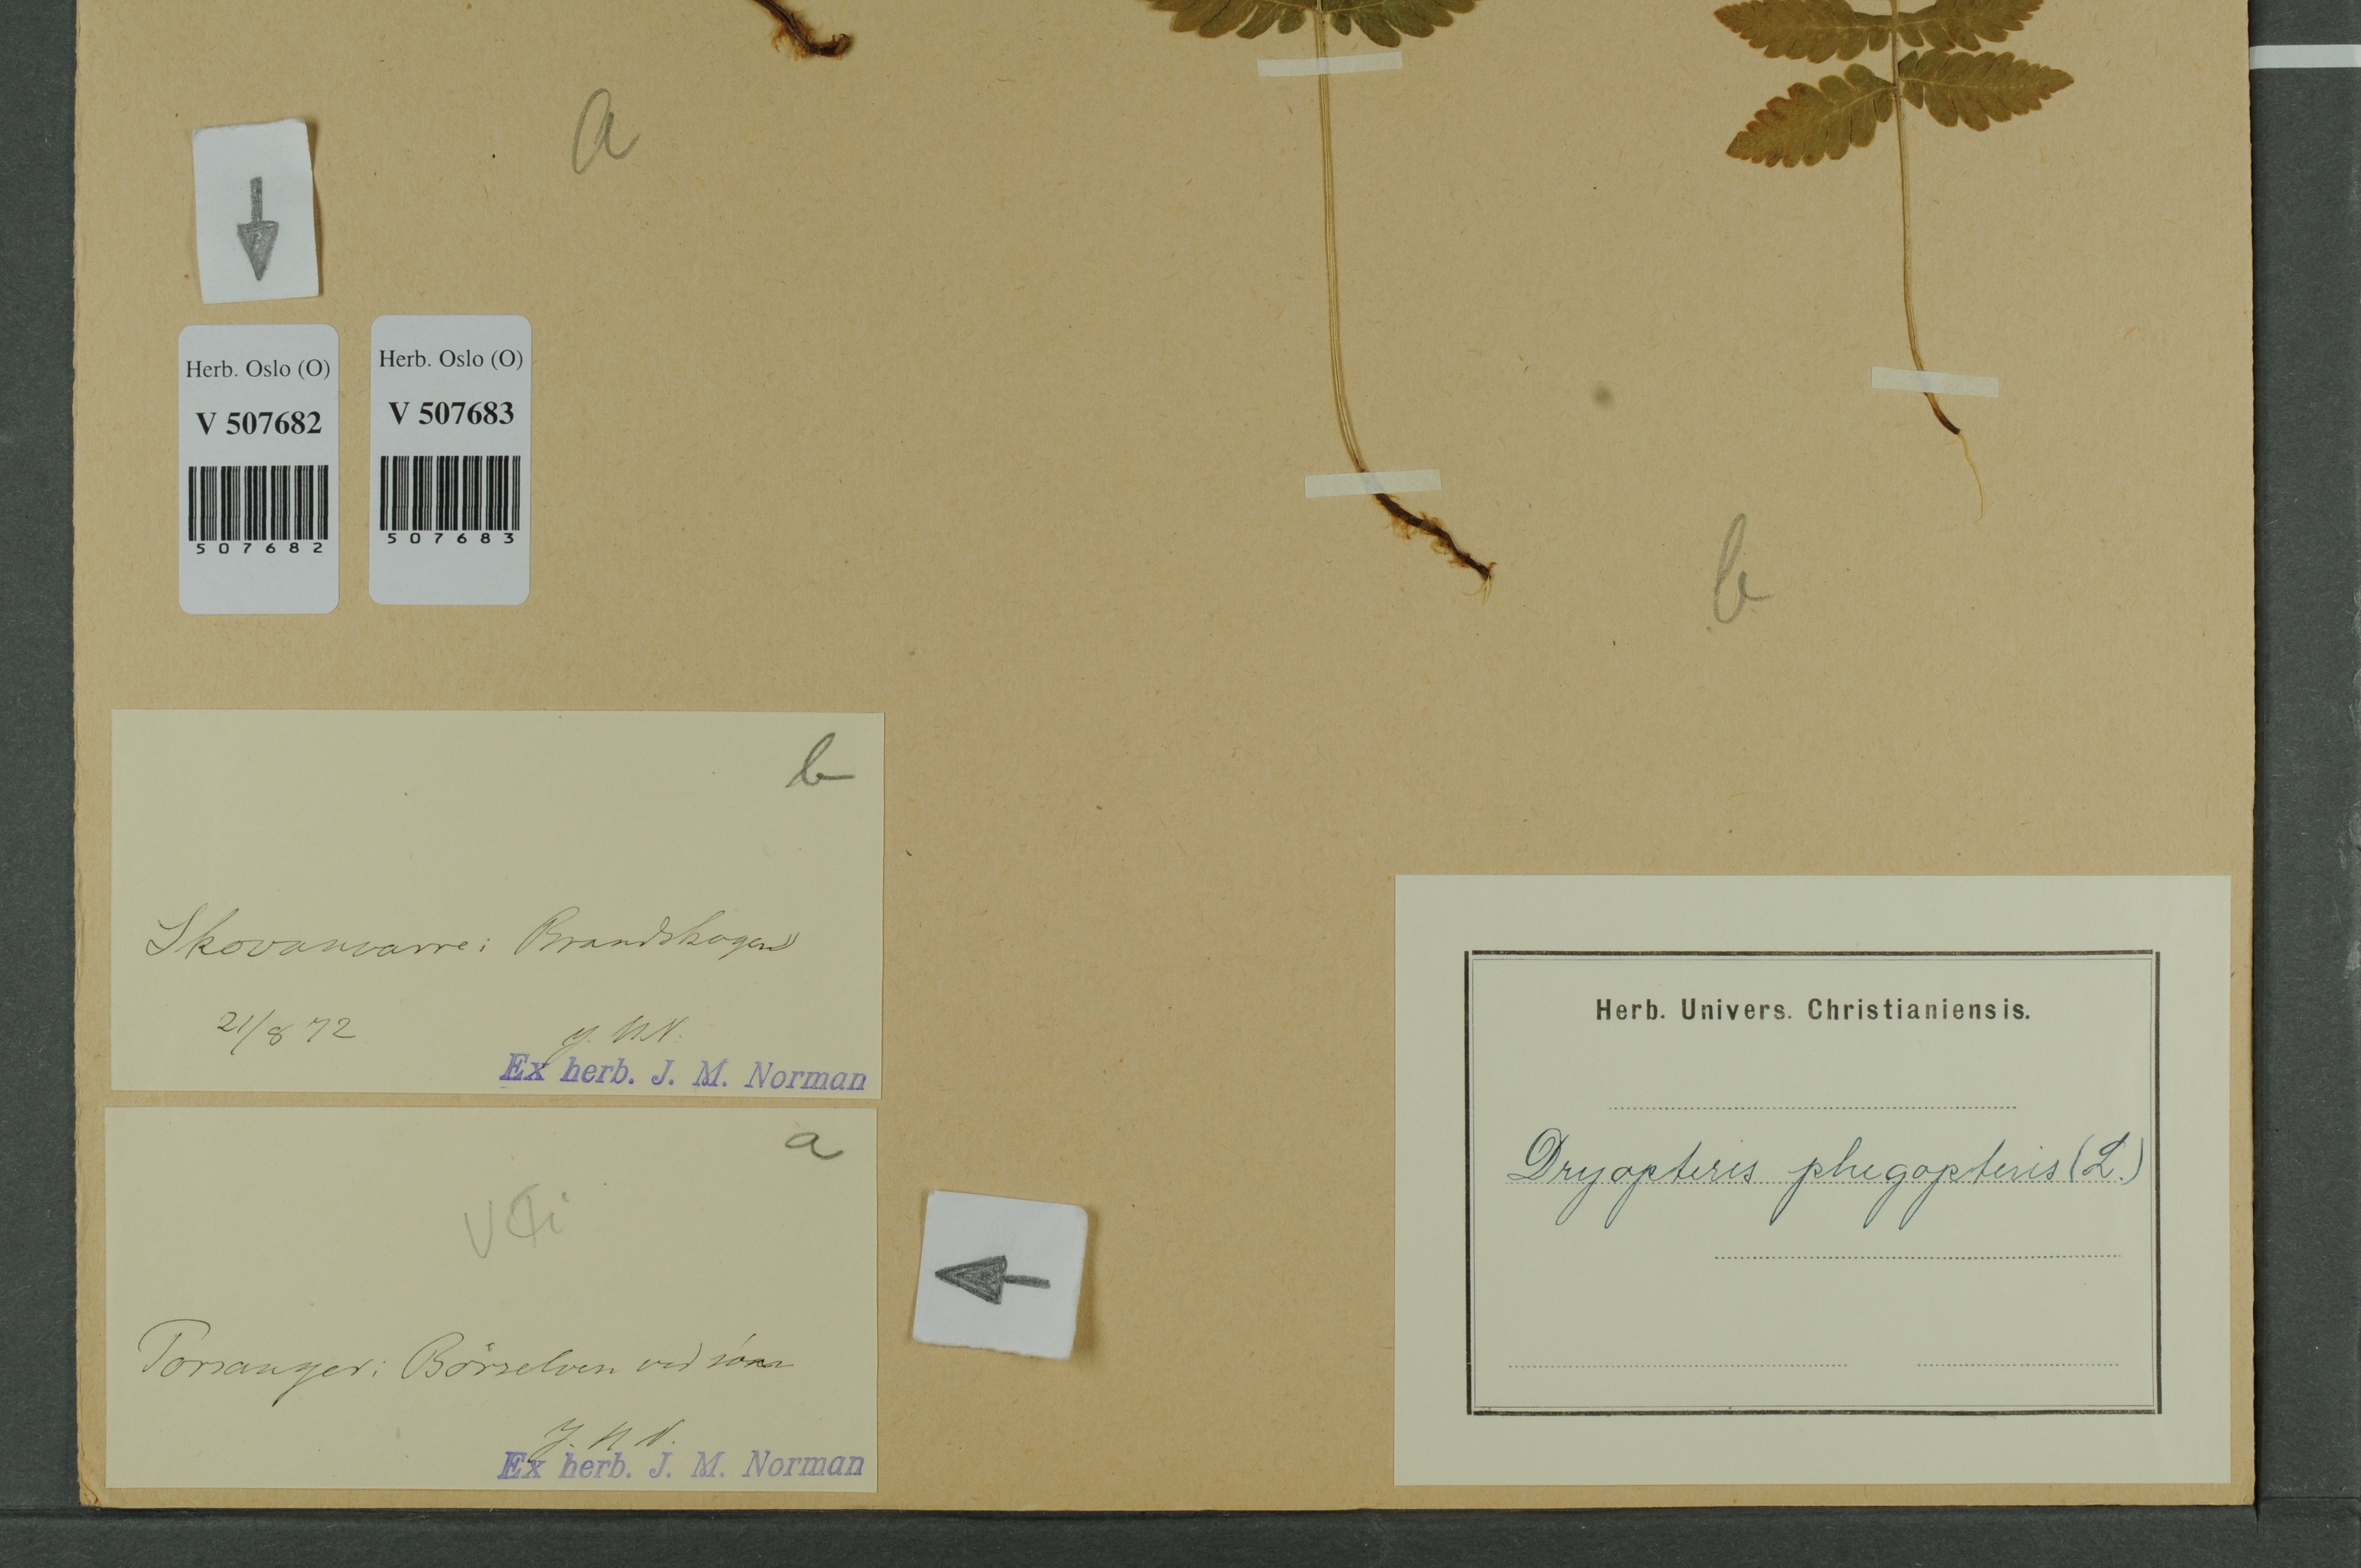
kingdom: Plantae
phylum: Tracheophyta
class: Polypodiopsida
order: Polypodiales
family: Thelypteridaceae
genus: Phegopteris
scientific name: Phegopteris connectilis
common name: Beech fern
